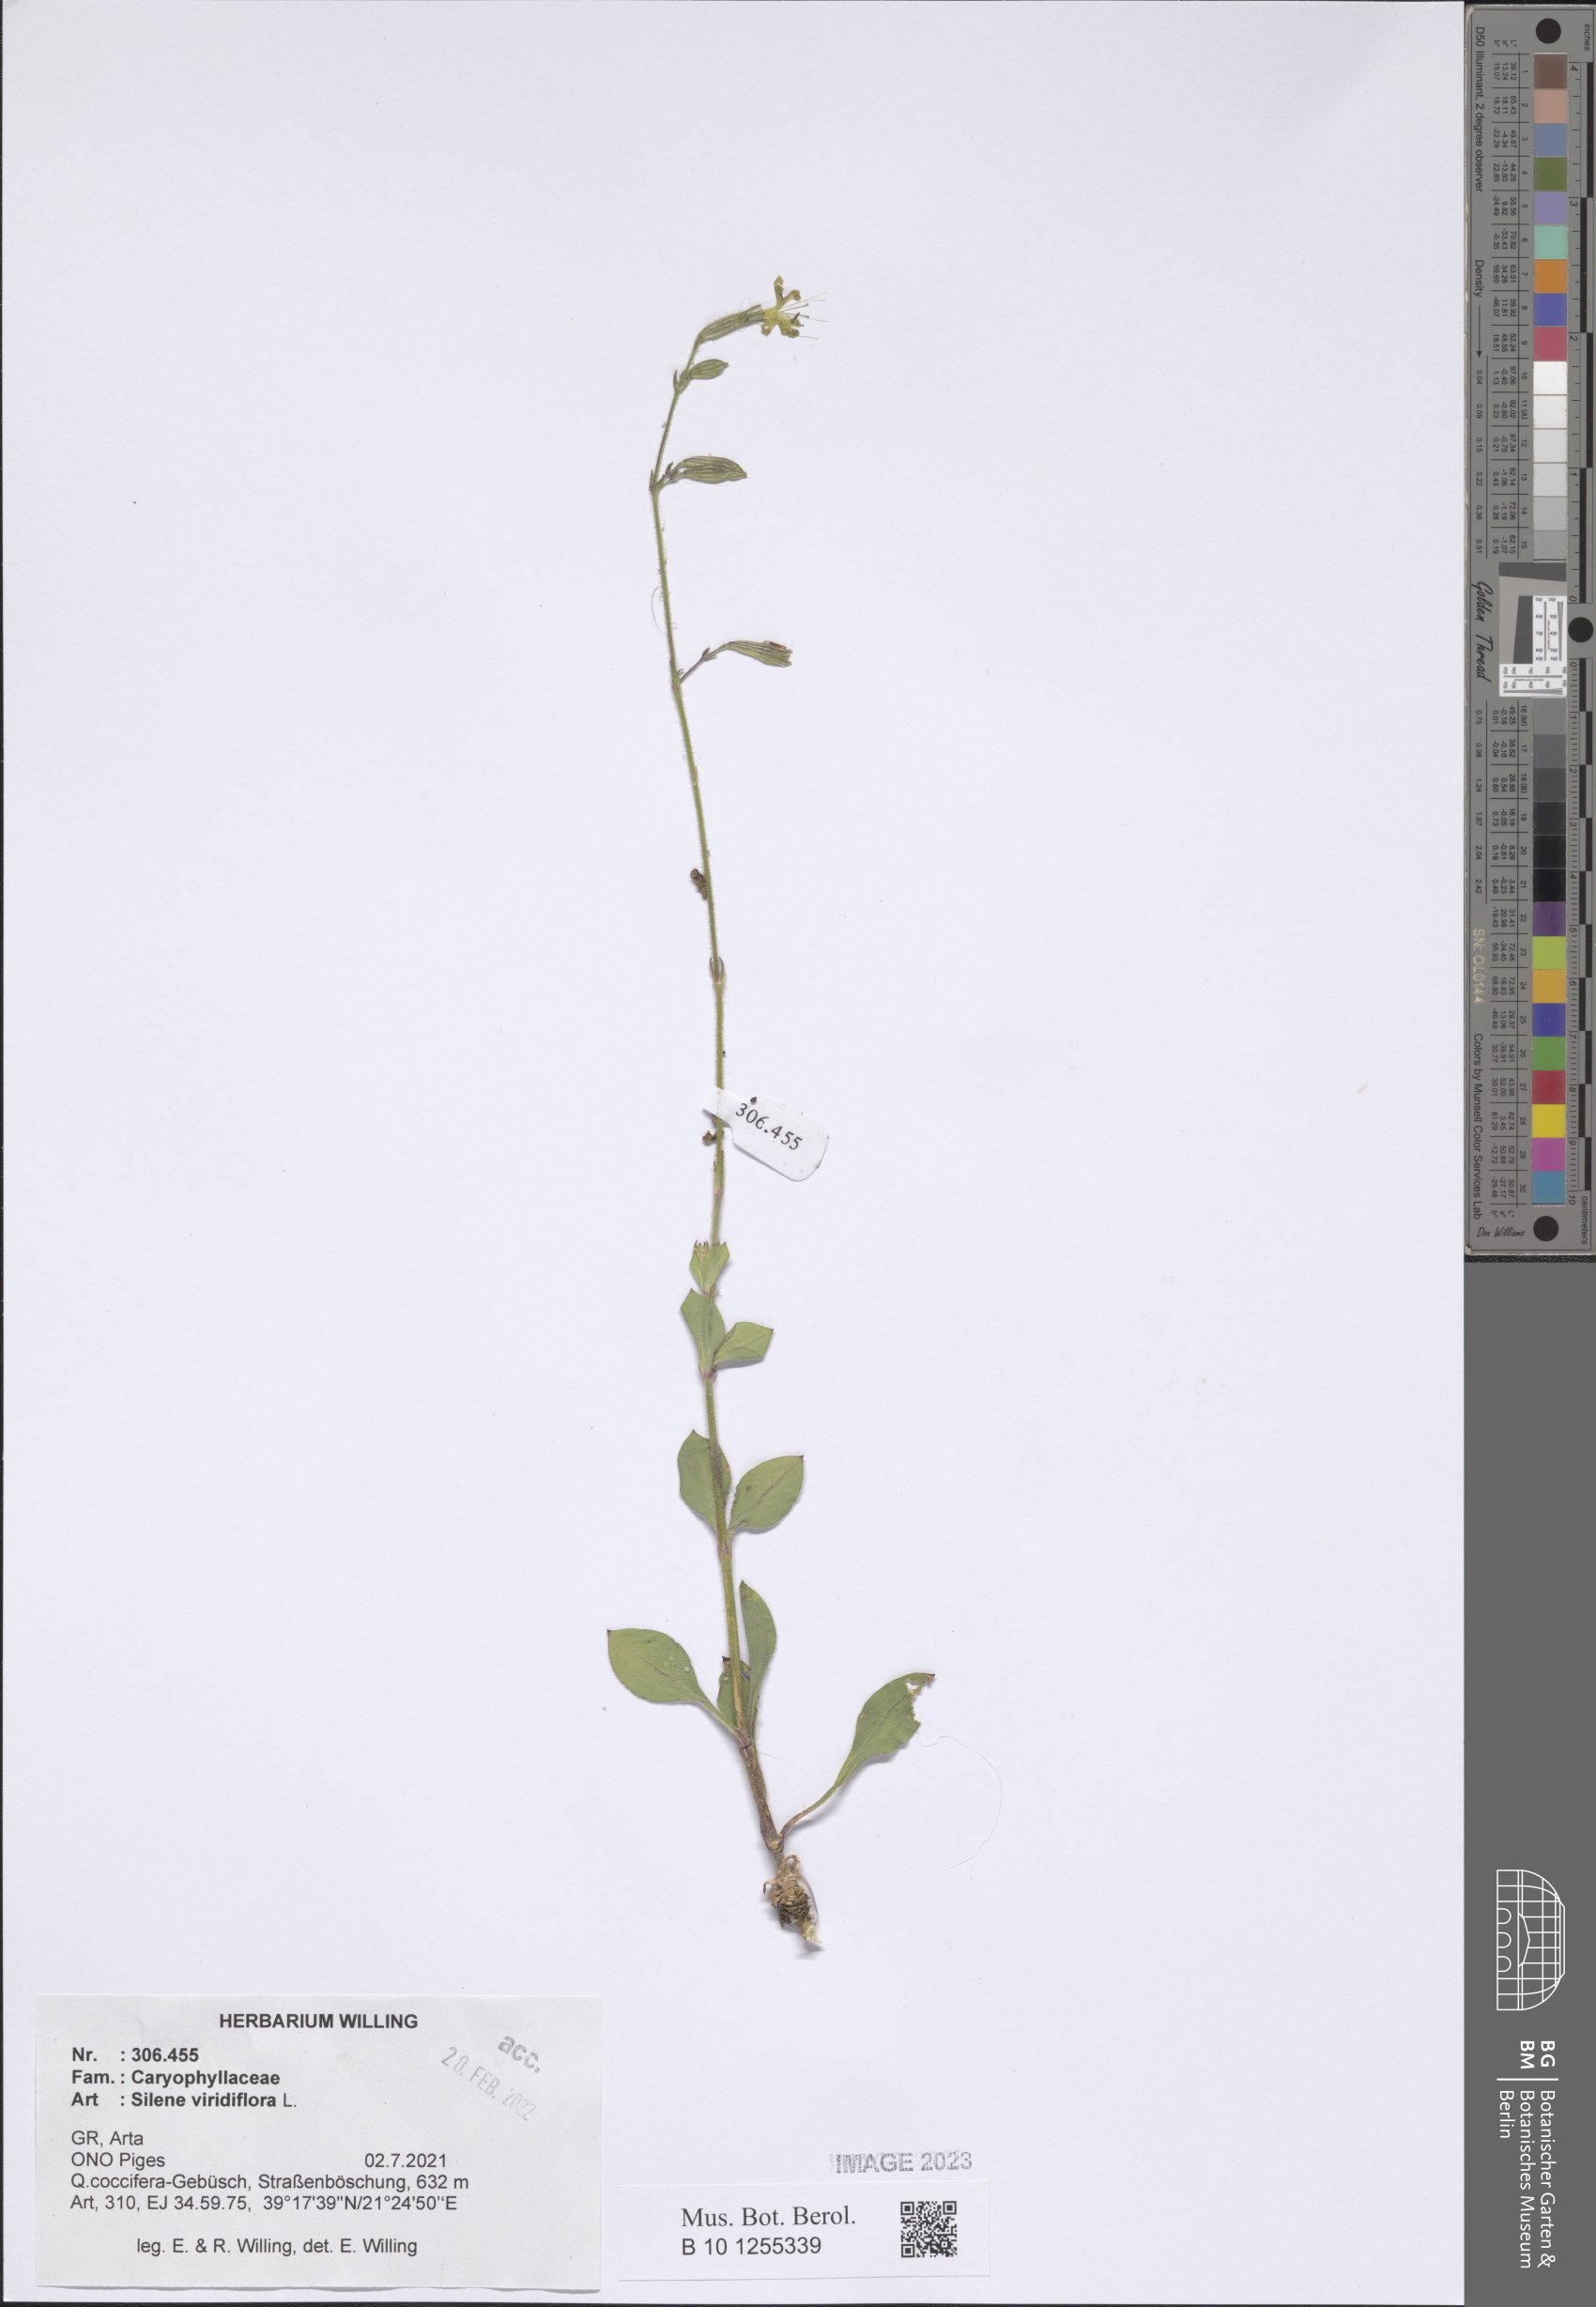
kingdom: Plantae
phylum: Tracheophyta
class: Magnoliopsida
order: Caryophyllales
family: Caryophyllaceae
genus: Silene
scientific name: Silene viridiflora
